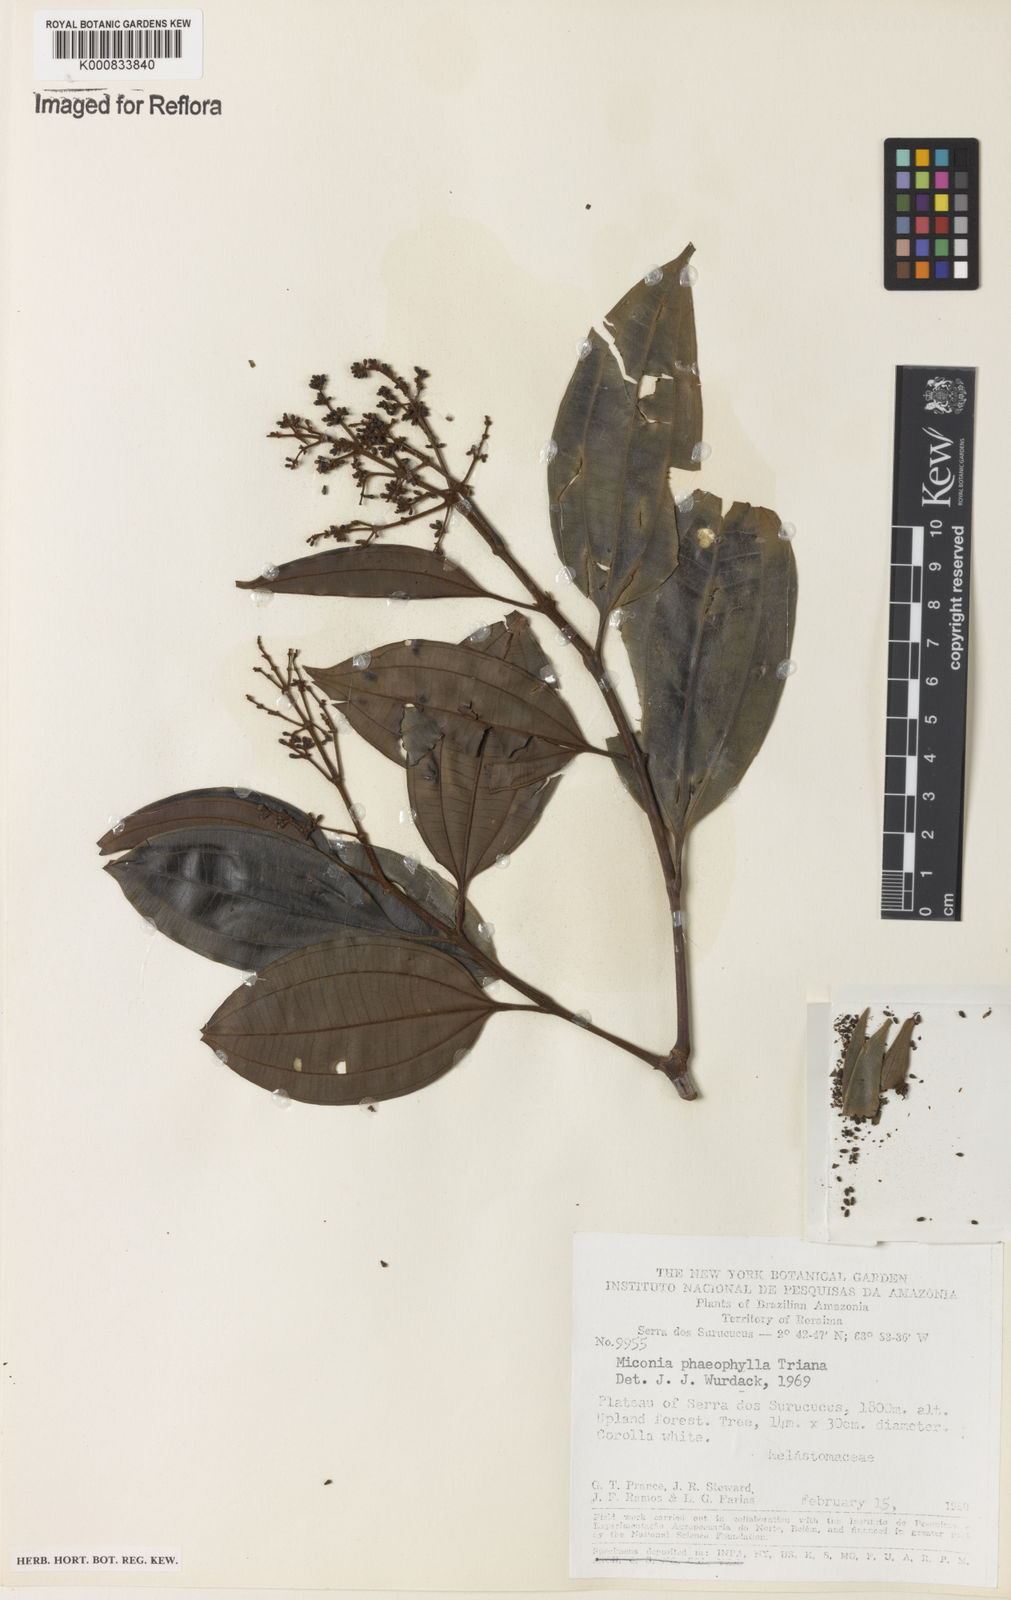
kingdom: Plantae
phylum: Tracheophyta
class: Magnoliopsida
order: Myrtales
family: Melastomataceae
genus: Miconia
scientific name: Miconia phaeophylla
